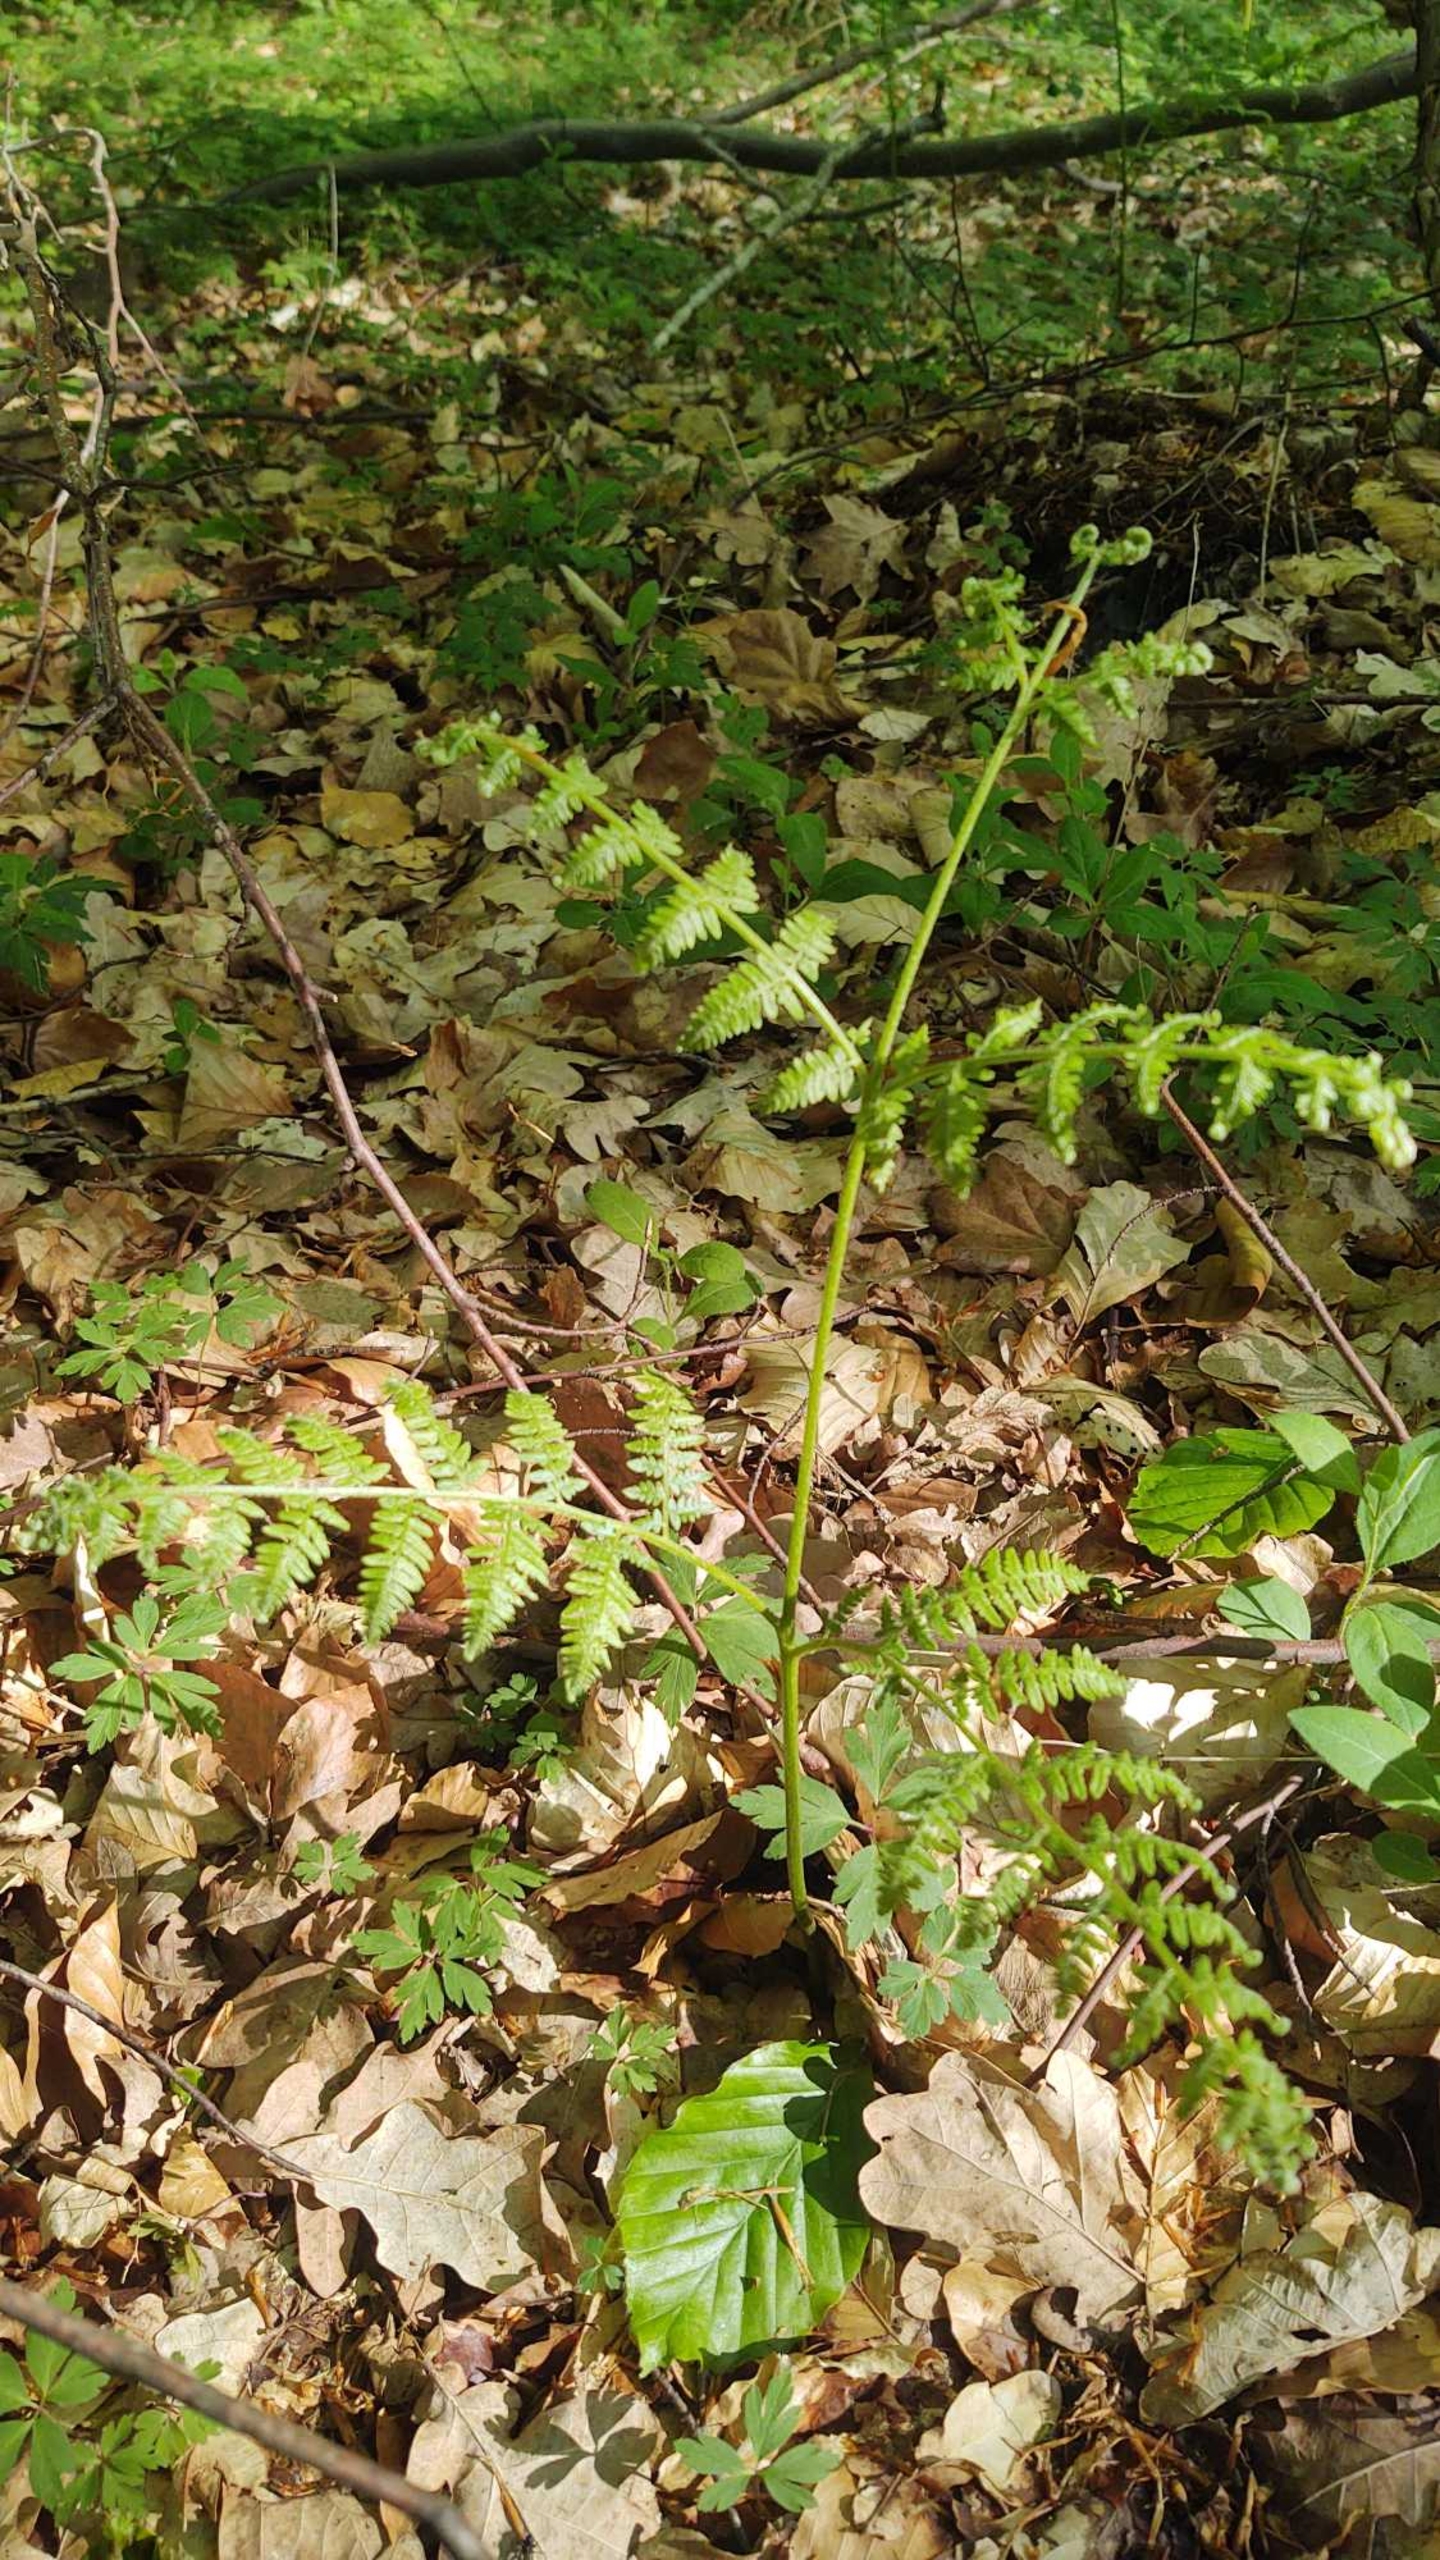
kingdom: Plantae
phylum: Tracheophyta
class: Polypodiopsida
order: Polypodiales
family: Dennstaedtiaceae
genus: Pteridium
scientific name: Pteridium aquilinum
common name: Ørnebregne
